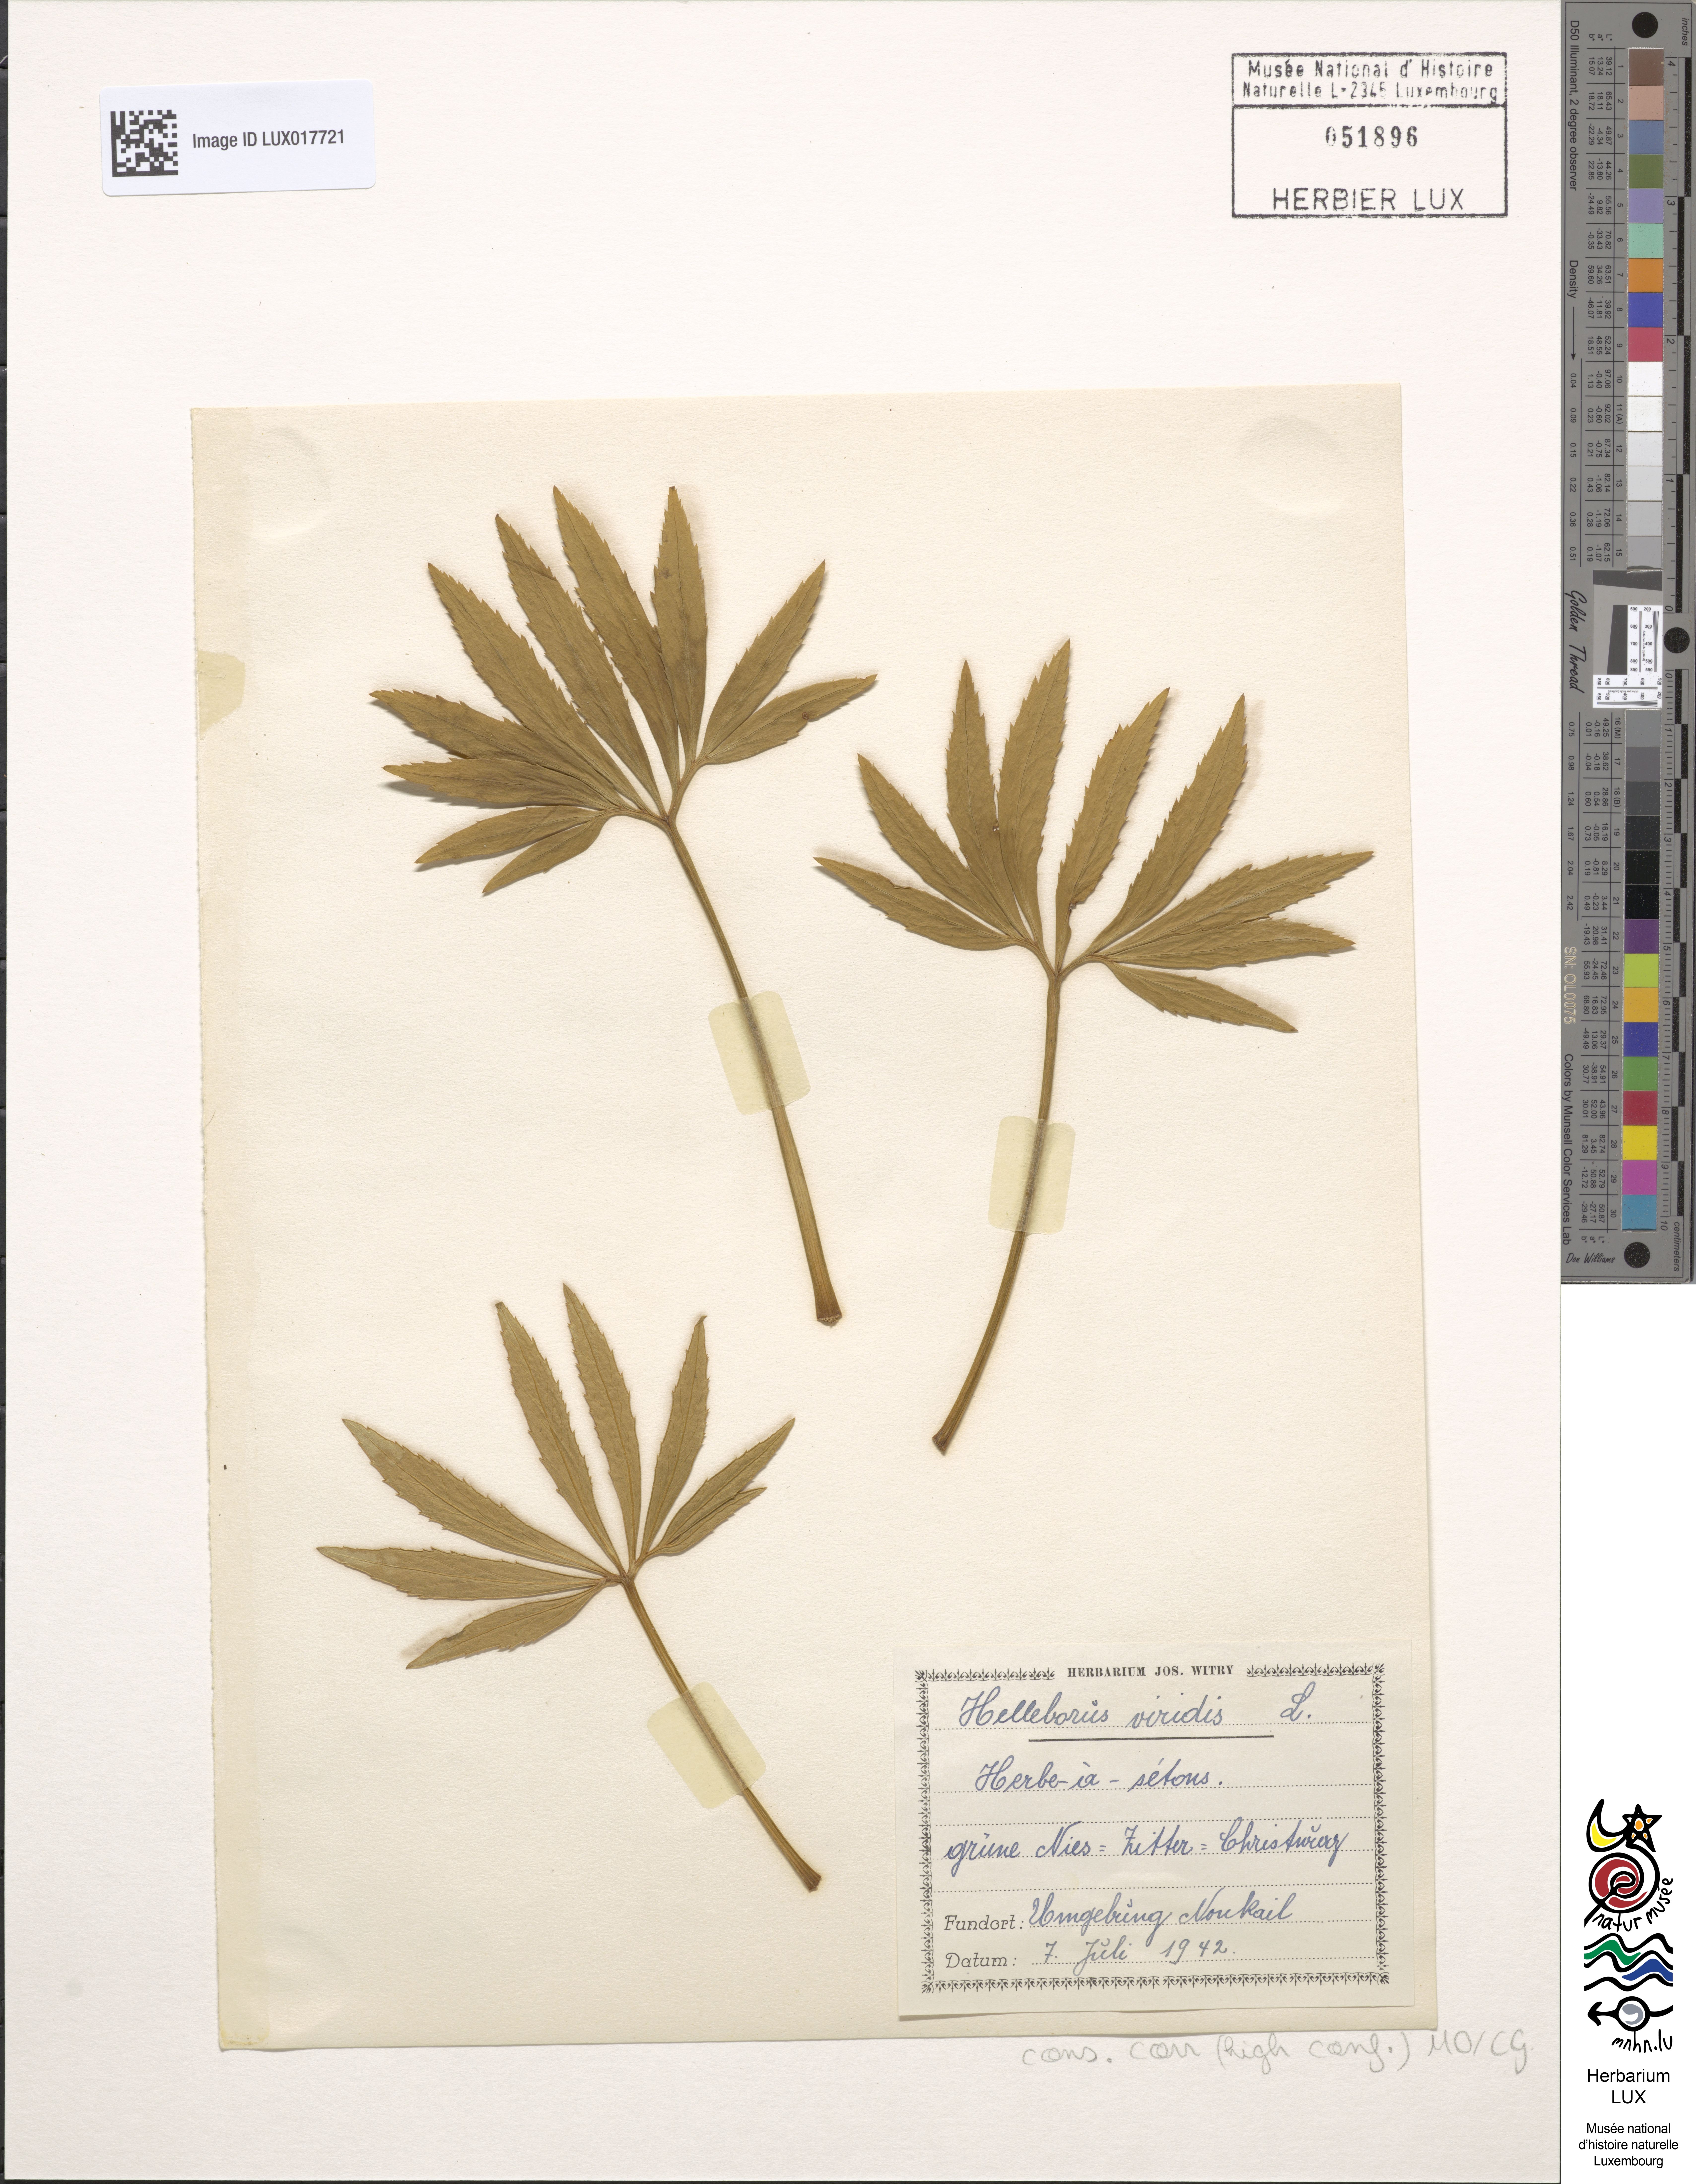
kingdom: Plantae
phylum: Tracheophyta
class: Magnoliopsida
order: Ranunculales
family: Ranunculaceae
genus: Helleborus
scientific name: Helleborus viridis
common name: Green hellebore
